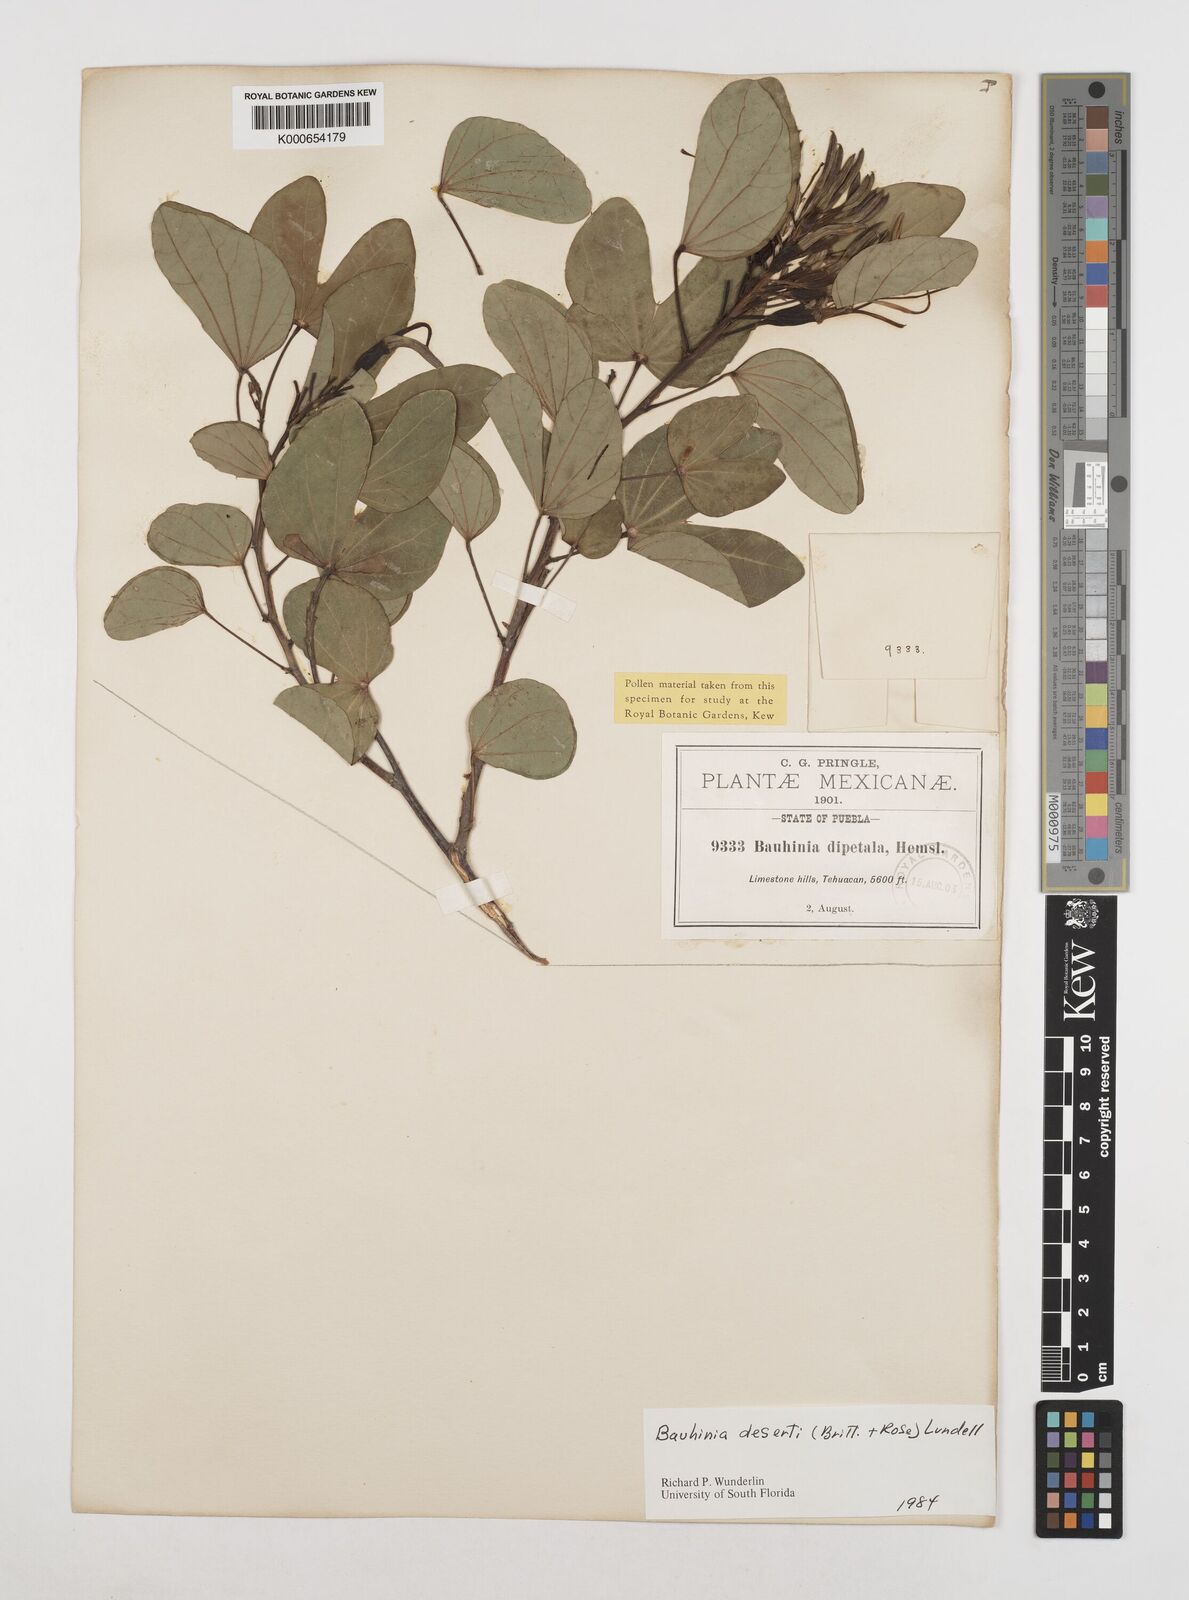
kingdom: Plantae
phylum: Tracheophyta
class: Magnoliopsida
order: Fabales
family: Fabaceae
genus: Bauhinia
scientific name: Bauhinia deserti
